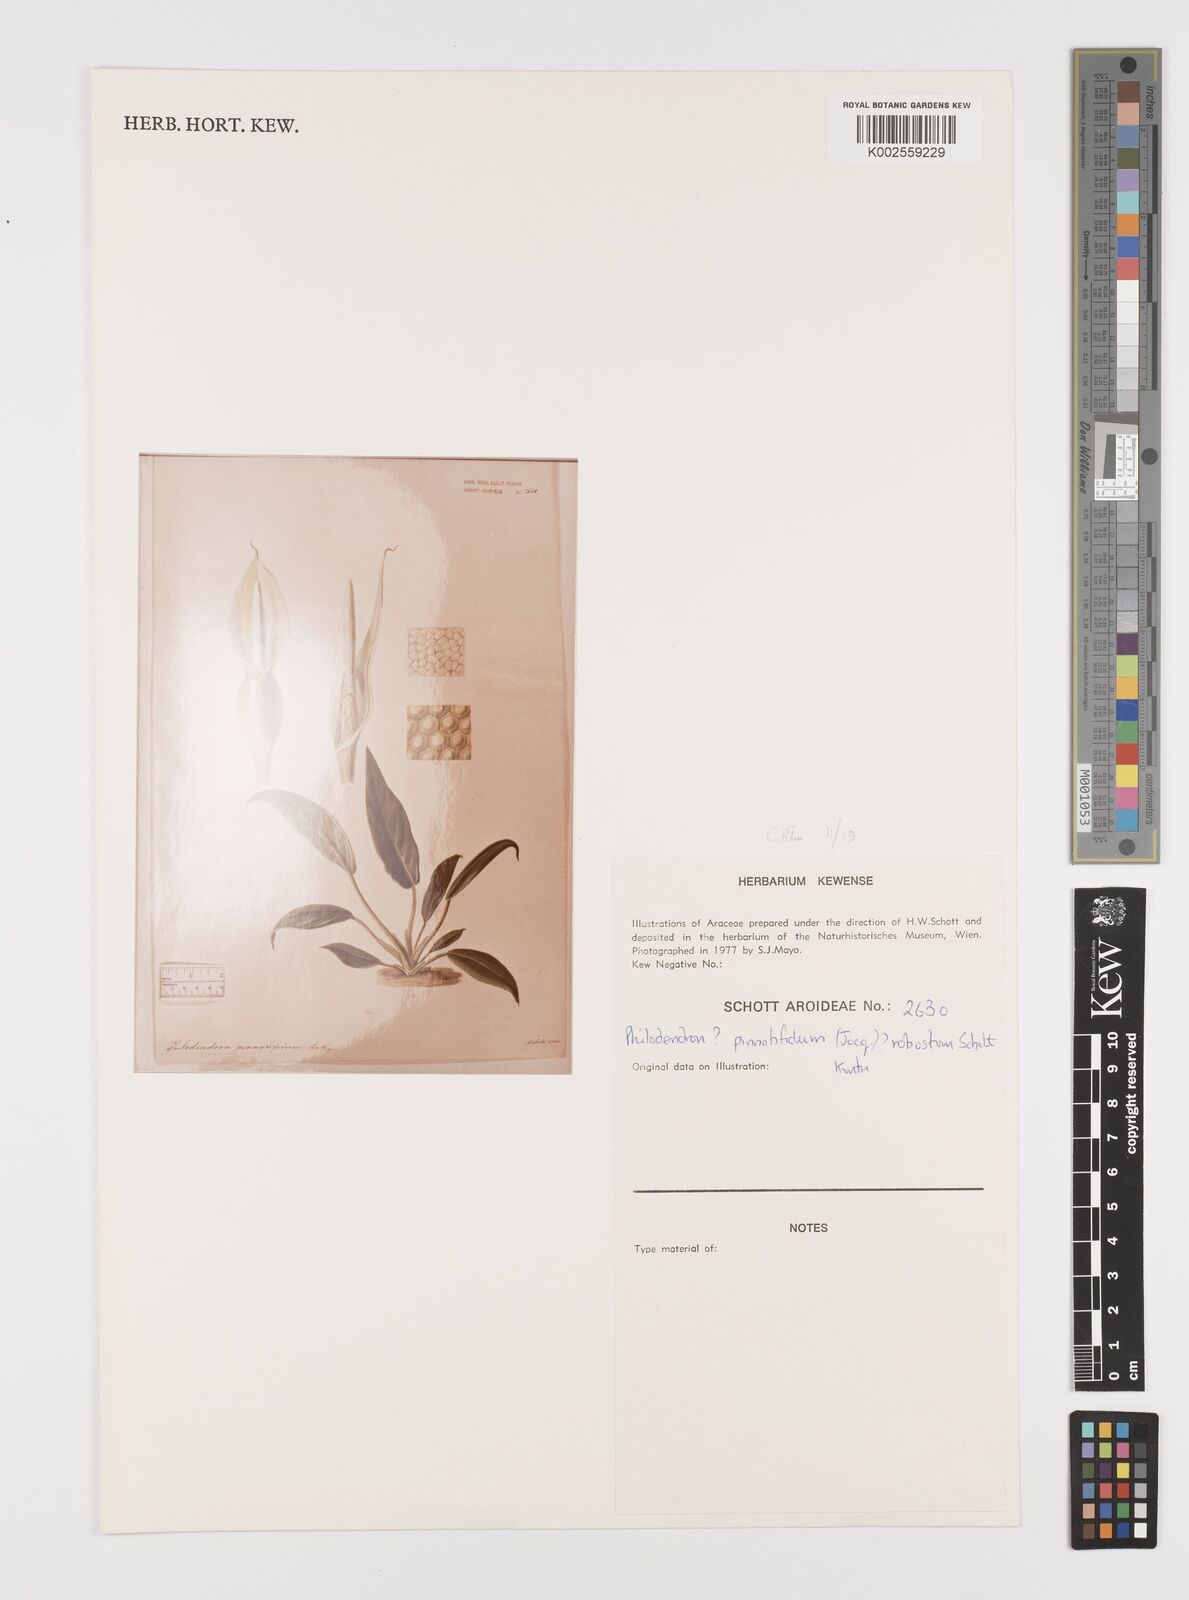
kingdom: Plantae
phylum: Tracheophyta
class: Liliopsida
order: Alismatales
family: Araceae
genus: Philodendron
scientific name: Philodendron pinnatifidum
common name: Comb-leaf philodendron
